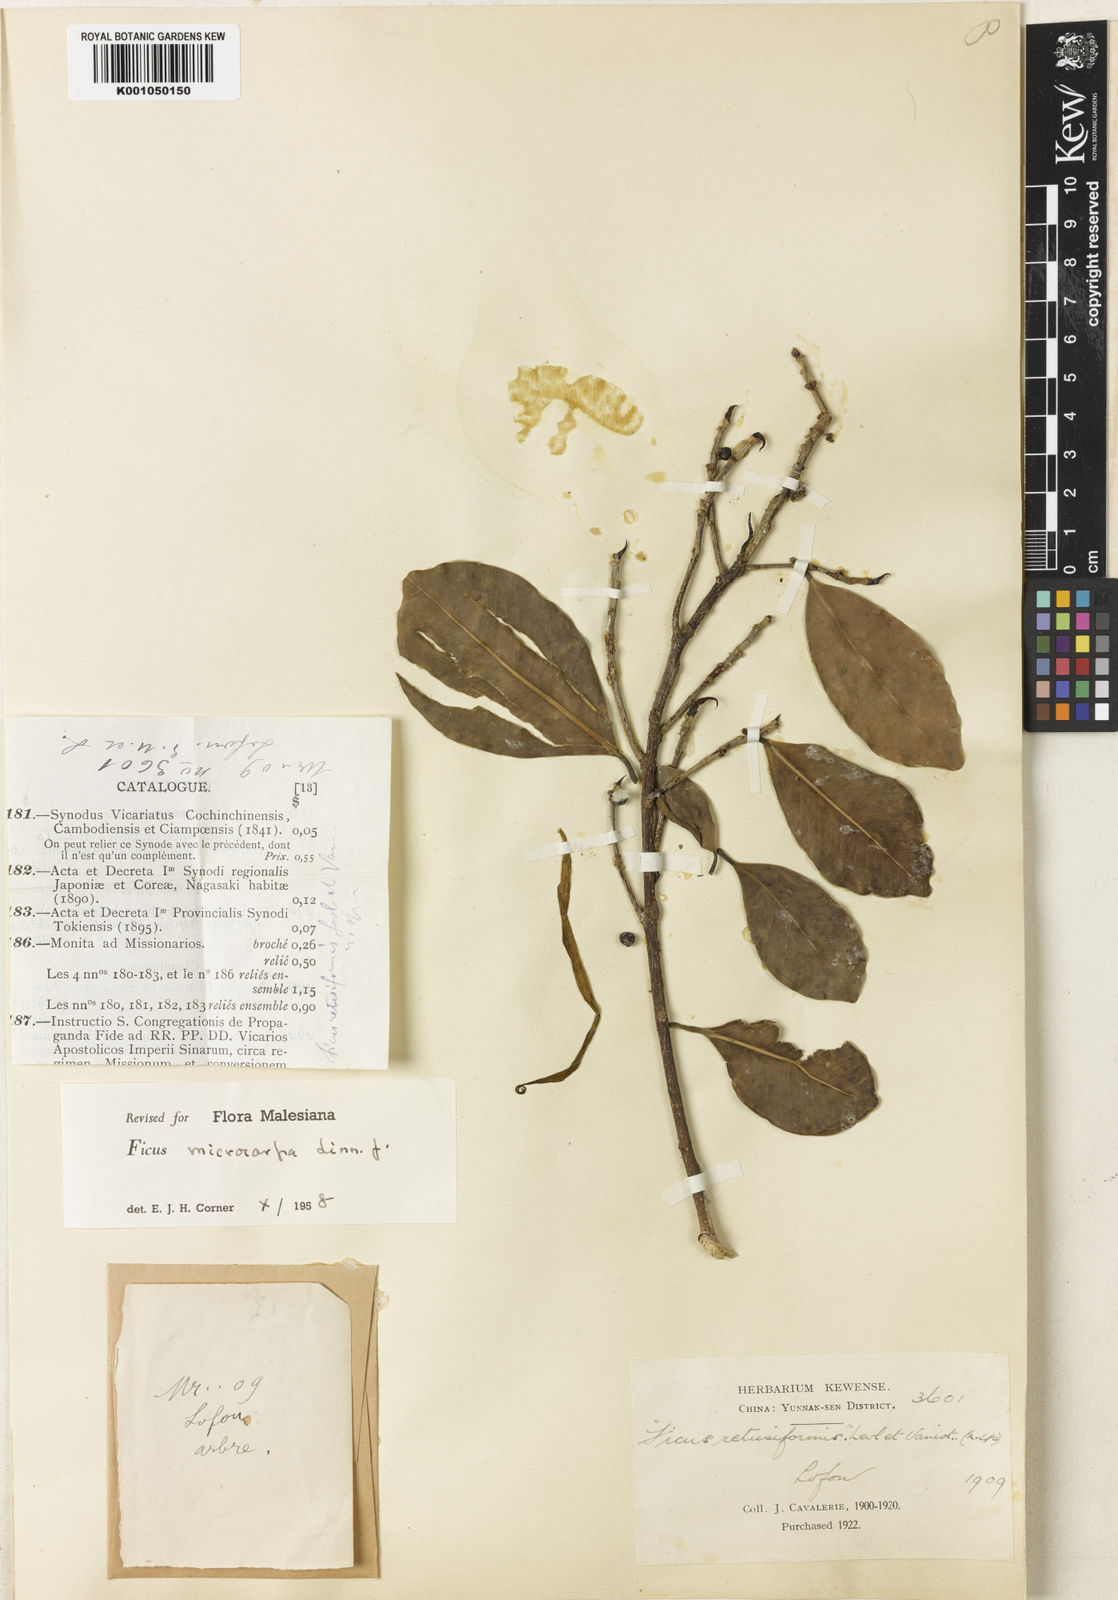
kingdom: Plantae
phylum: Tracheophyta
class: Magnoliopsida
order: Rosales
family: Moraceae
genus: Ficus
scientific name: Ficus microcarpa
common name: Chinese banyan
